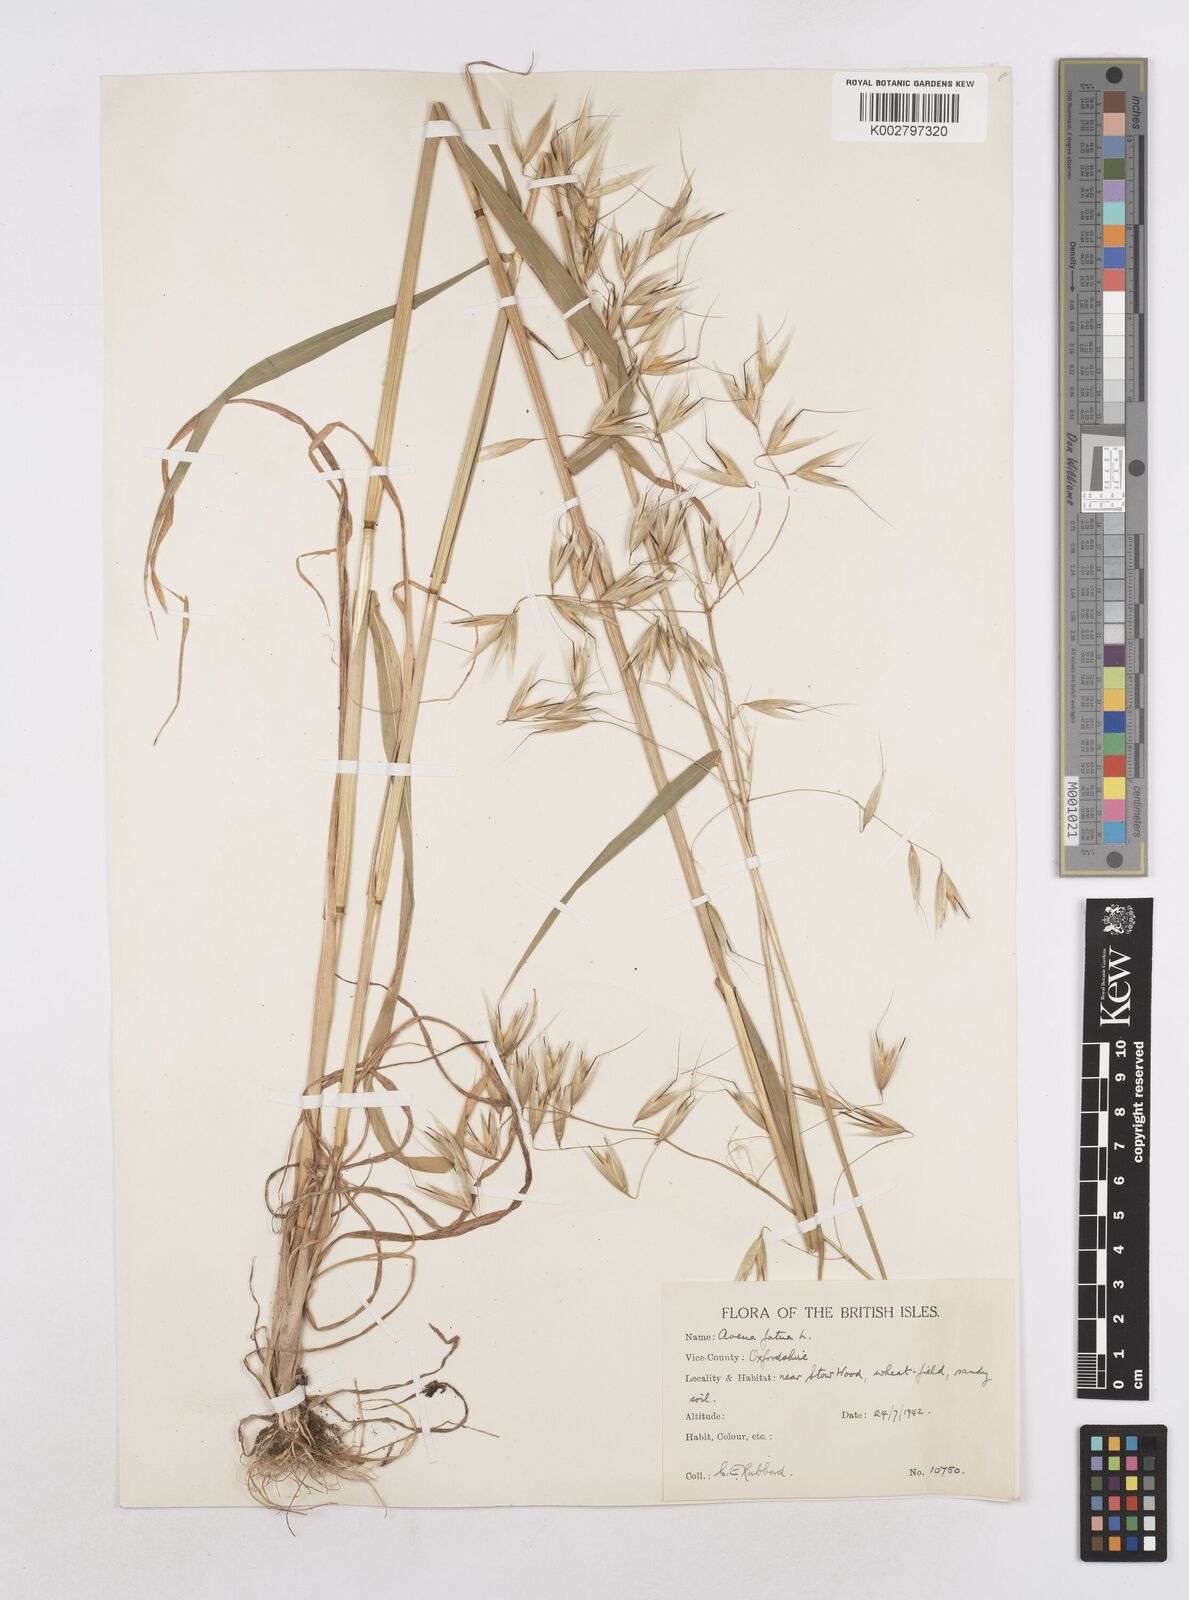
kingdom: Plantae
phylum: Tracheophyta
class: Liliopsida
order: Poales
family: Poaceae
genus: Avena
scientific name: Avena fatua
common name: Wild oat
